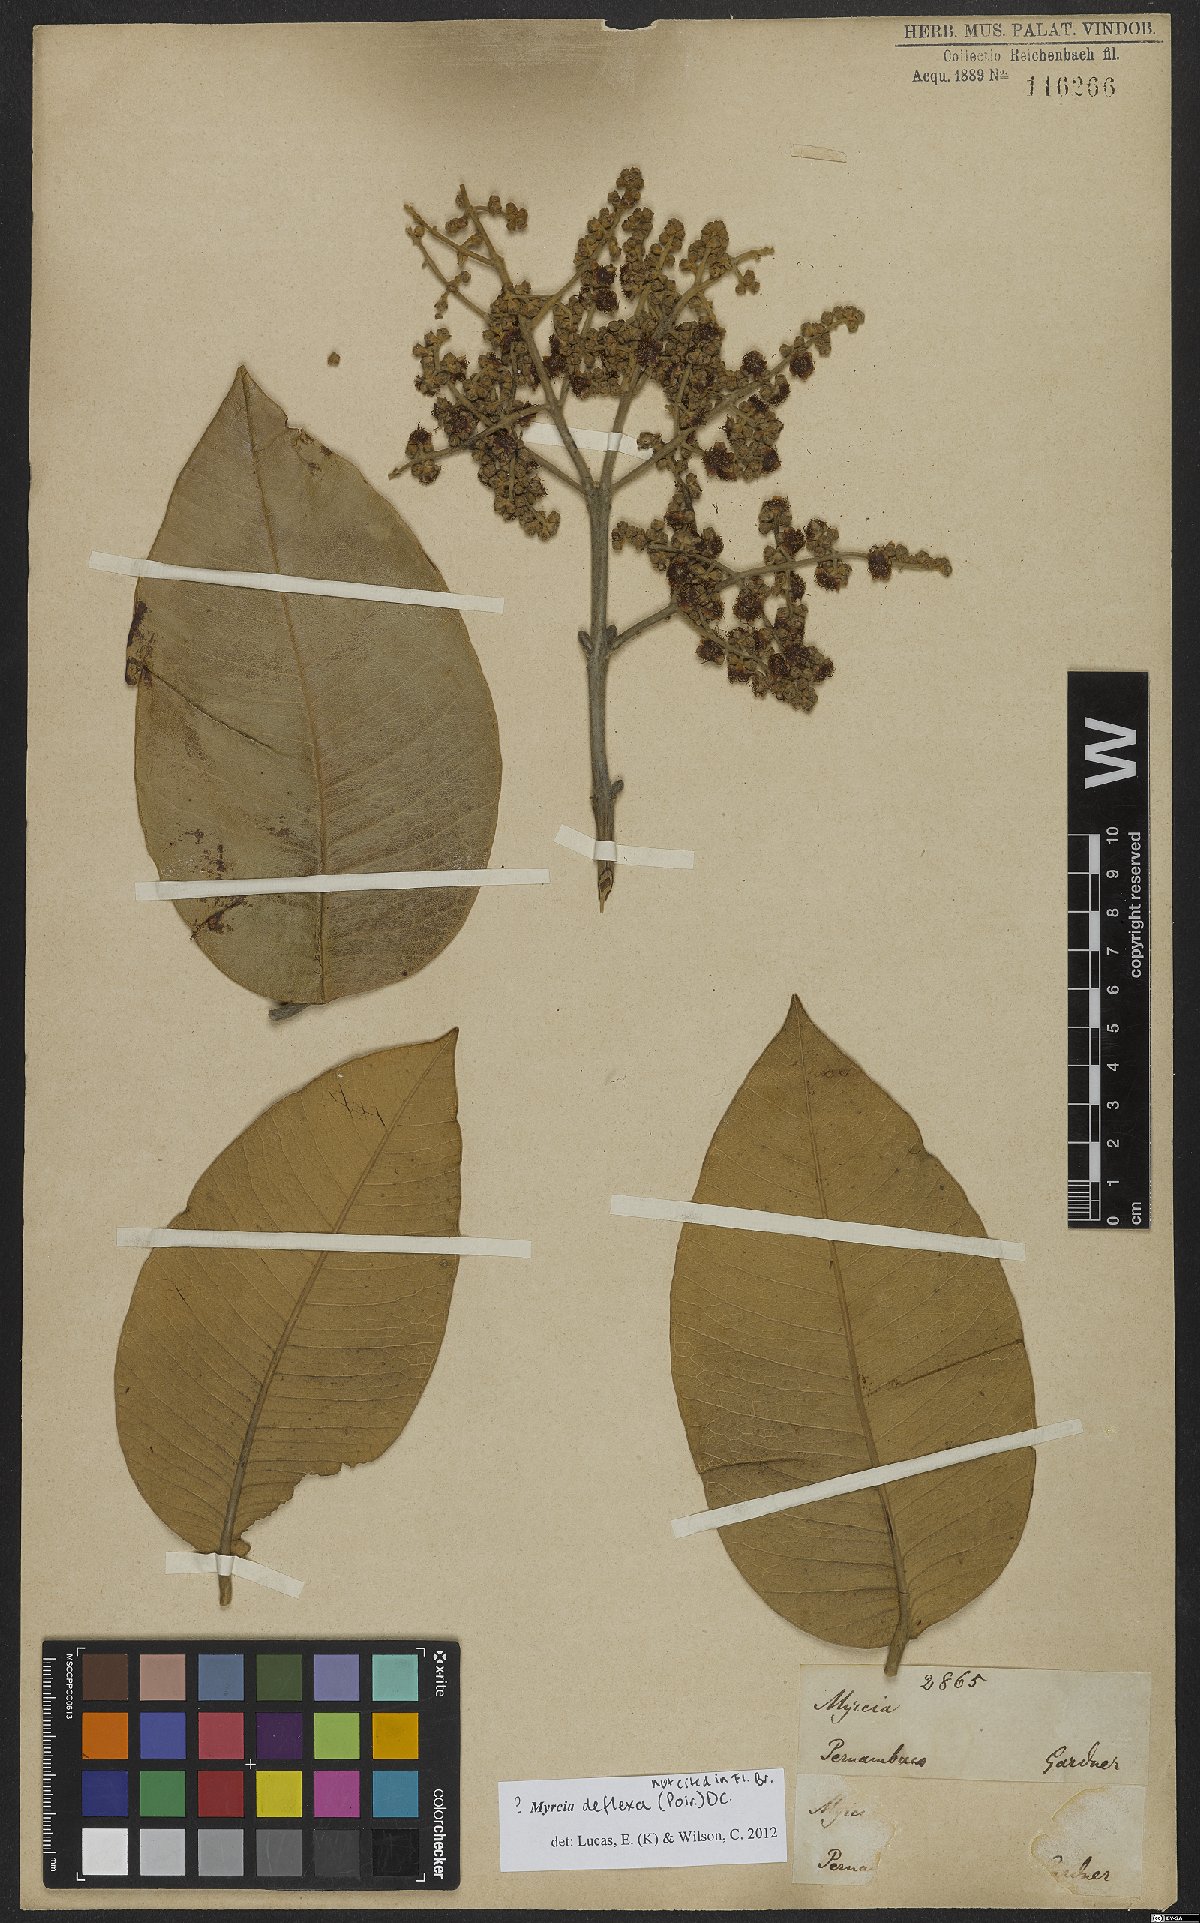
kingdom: Plantae
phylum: Tracheophyta
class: Magnoliopsida
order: Myrtales
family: Myrtaceae
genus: Myrcia
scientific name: Myrcia deflexa
